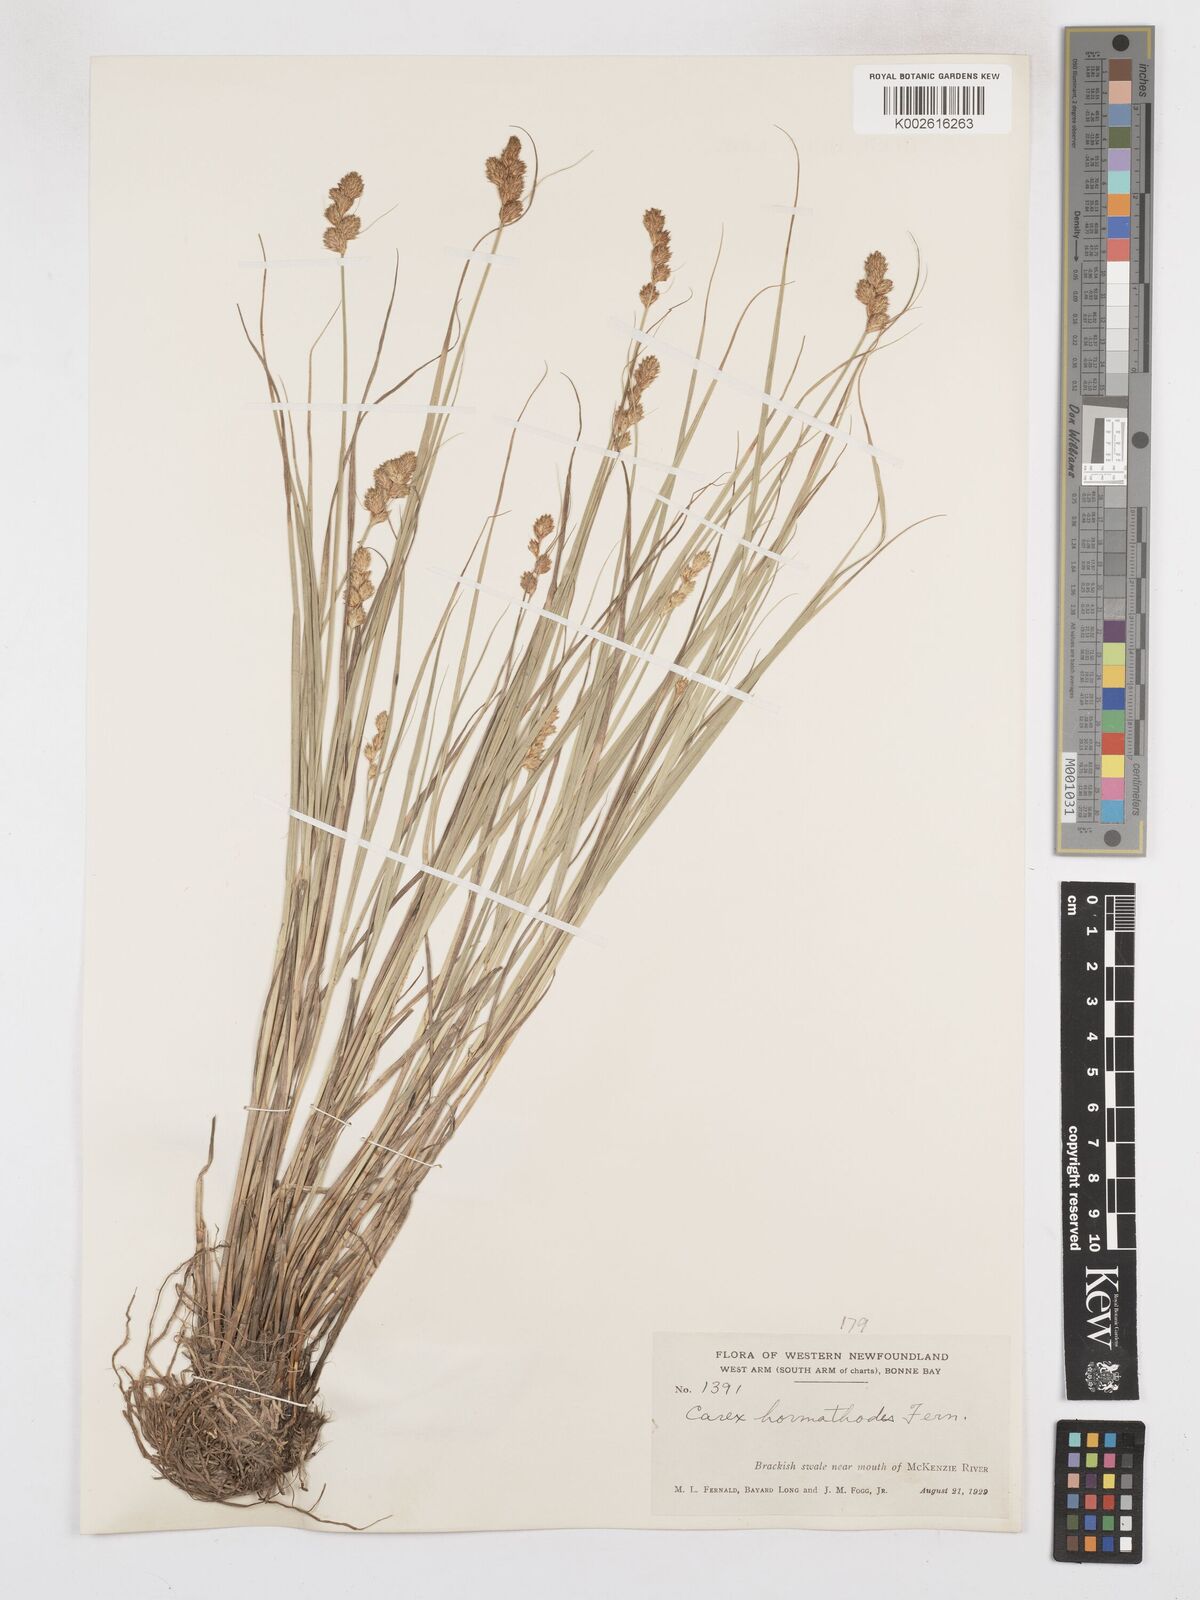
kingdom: Plantae
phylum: Tracheophyta
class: Liliopsida
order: Poales
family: Cyperaceae
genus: Carex
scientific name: Carex hormathodes
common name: Marsh straw sedge
